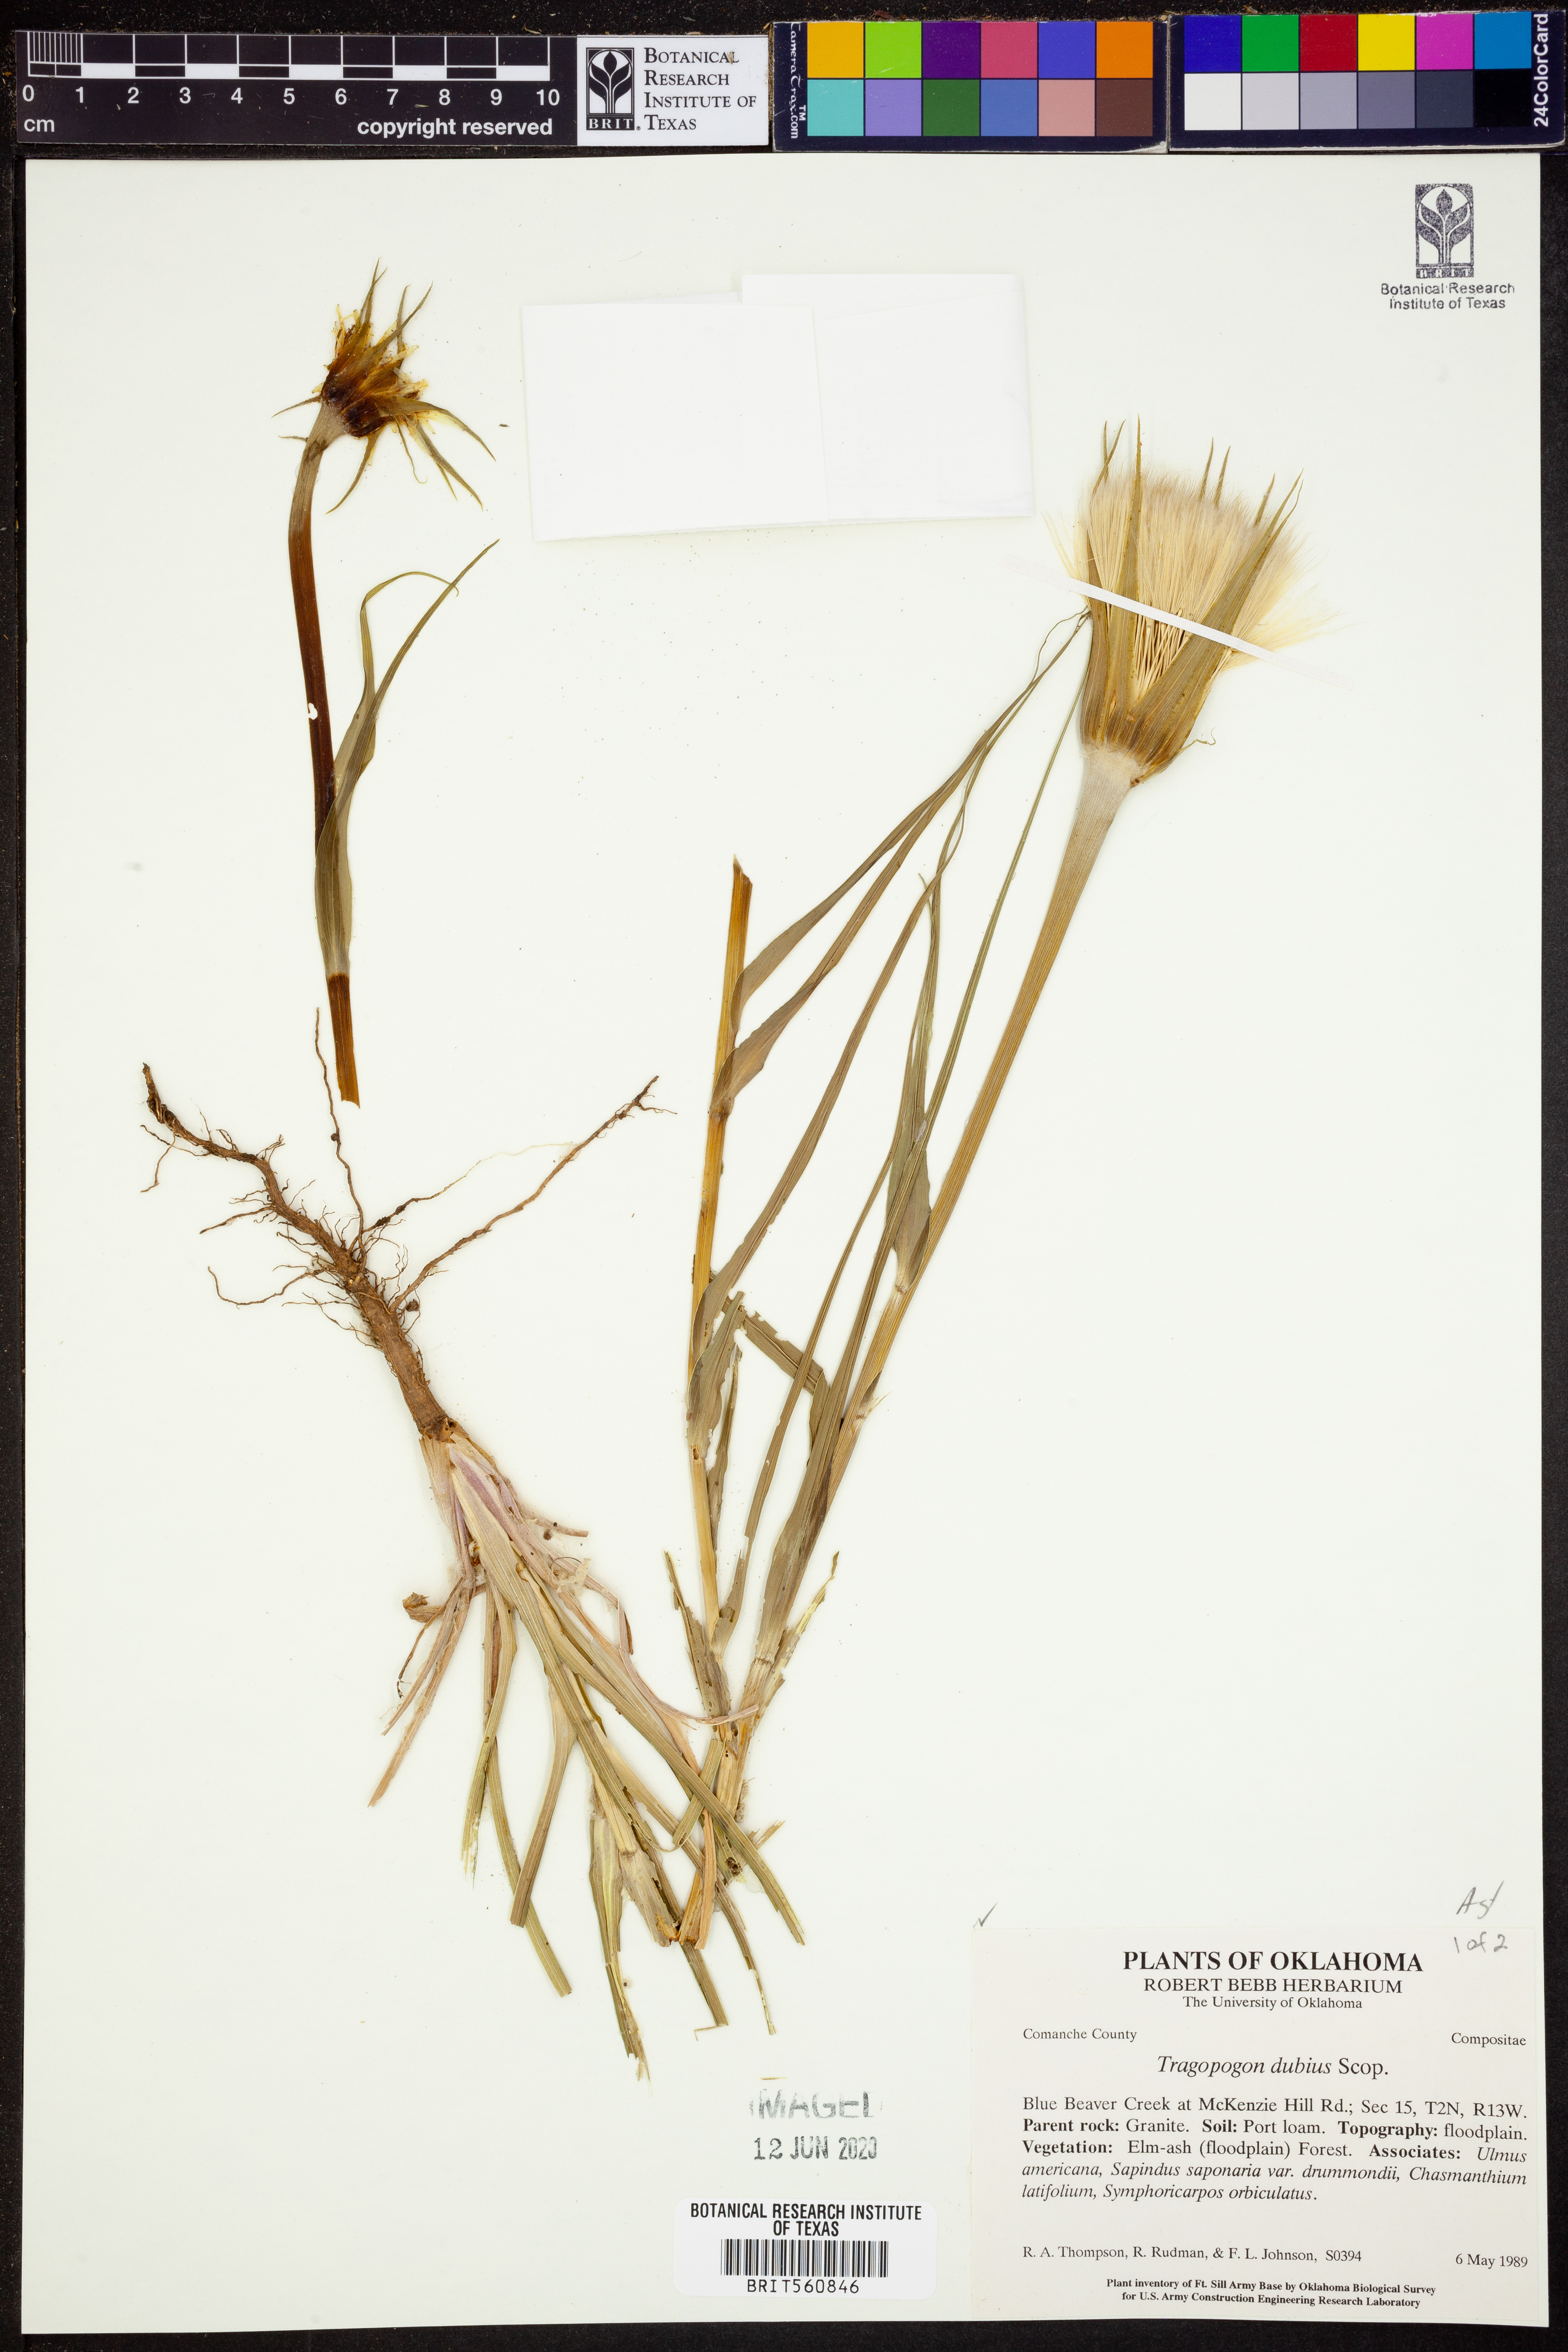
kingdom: Plantae
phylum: Tracheophyta
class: Magnoliopsida
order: Asterales
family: Asteraceae
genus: Tragopogon
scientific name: Tragopogon dubius
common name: Yellow salsify
